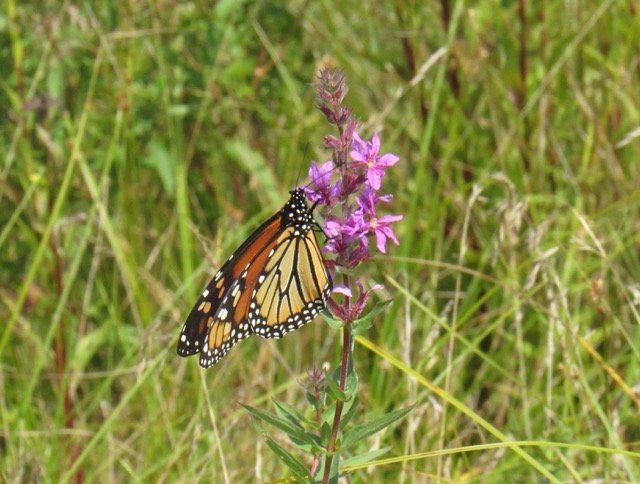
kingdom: Animalia
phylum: Arthropoda
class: Insecta
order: Lepidoptera
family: Nymphalidae
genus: Danaus
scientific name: Danaus plexippus
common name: Monarch
